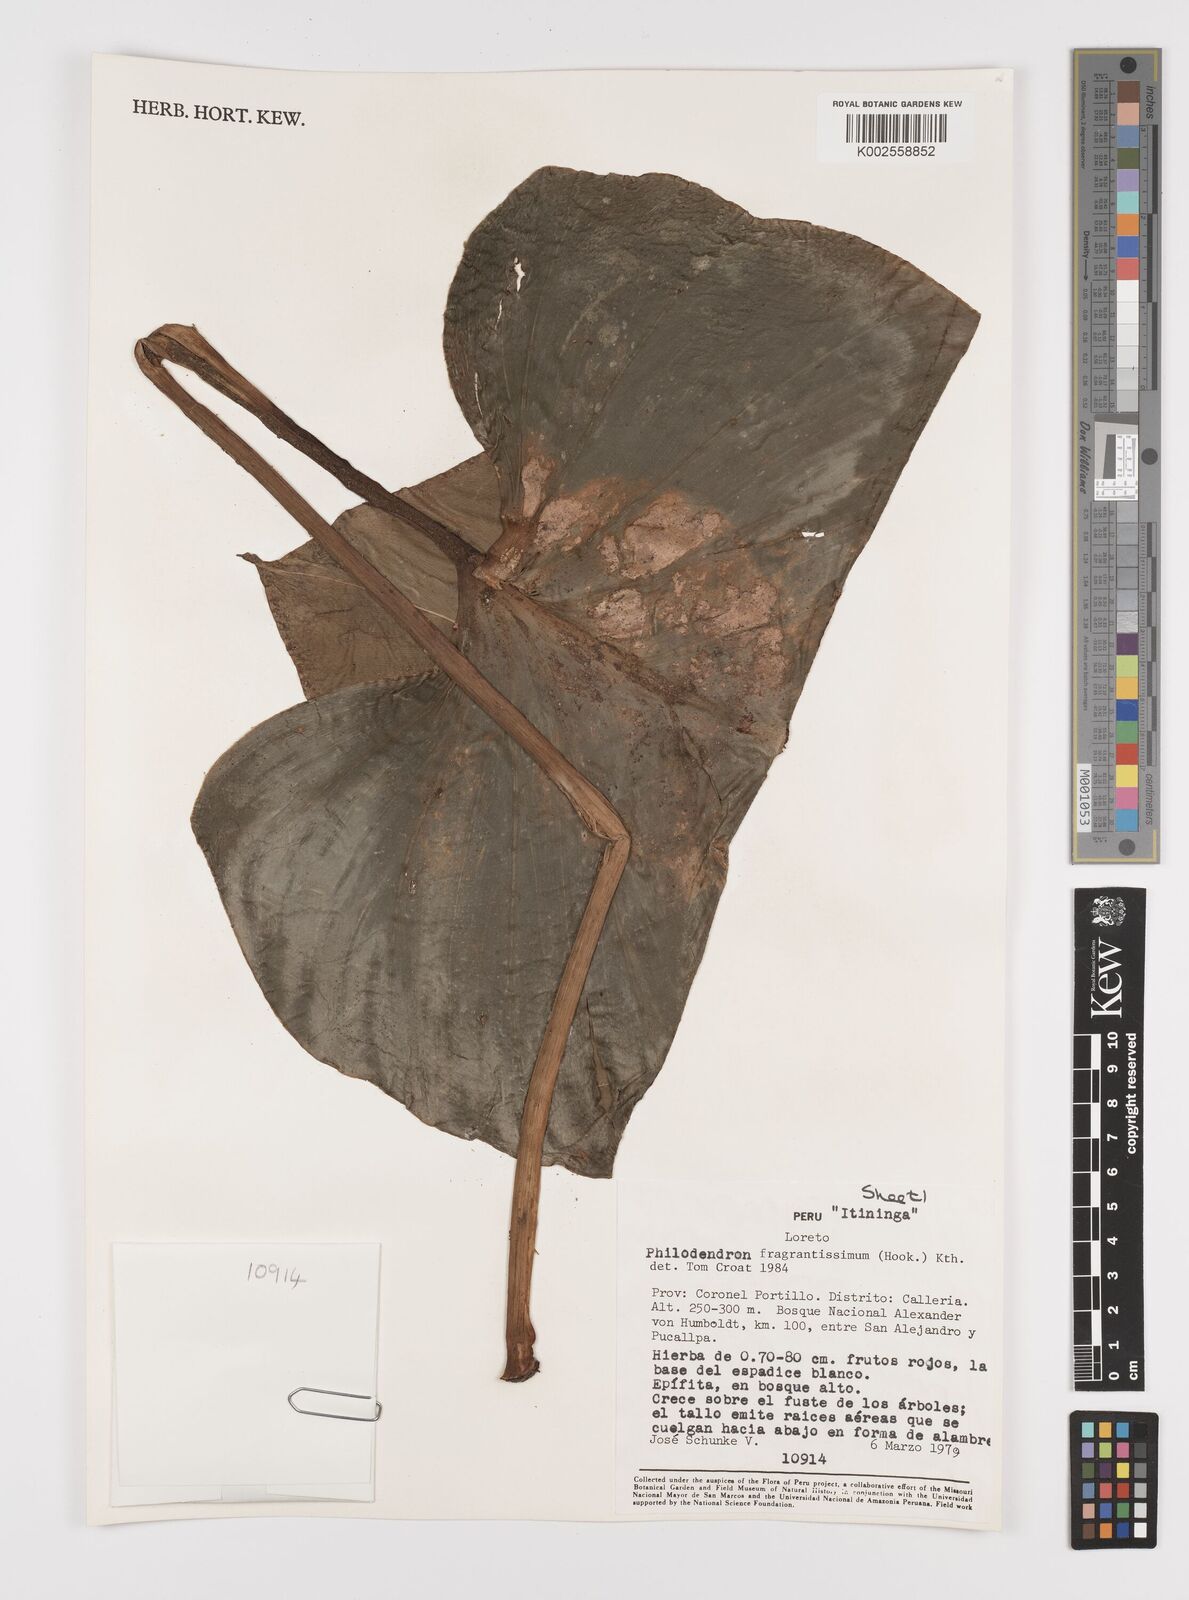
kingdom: Plantae
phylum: Tracheophyta
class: Liliopsida
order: Alismatales
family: Araceae
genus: Philodendron
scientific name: Philodendron fragrantissimum
